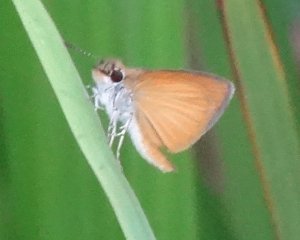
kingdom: Animalia
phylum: Arthropoda
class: Insecta
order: Lepidoptera
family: Hesperiidae
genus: Ancyloxypha
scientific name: Ancyloxypha numitor
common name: Least Skipper
